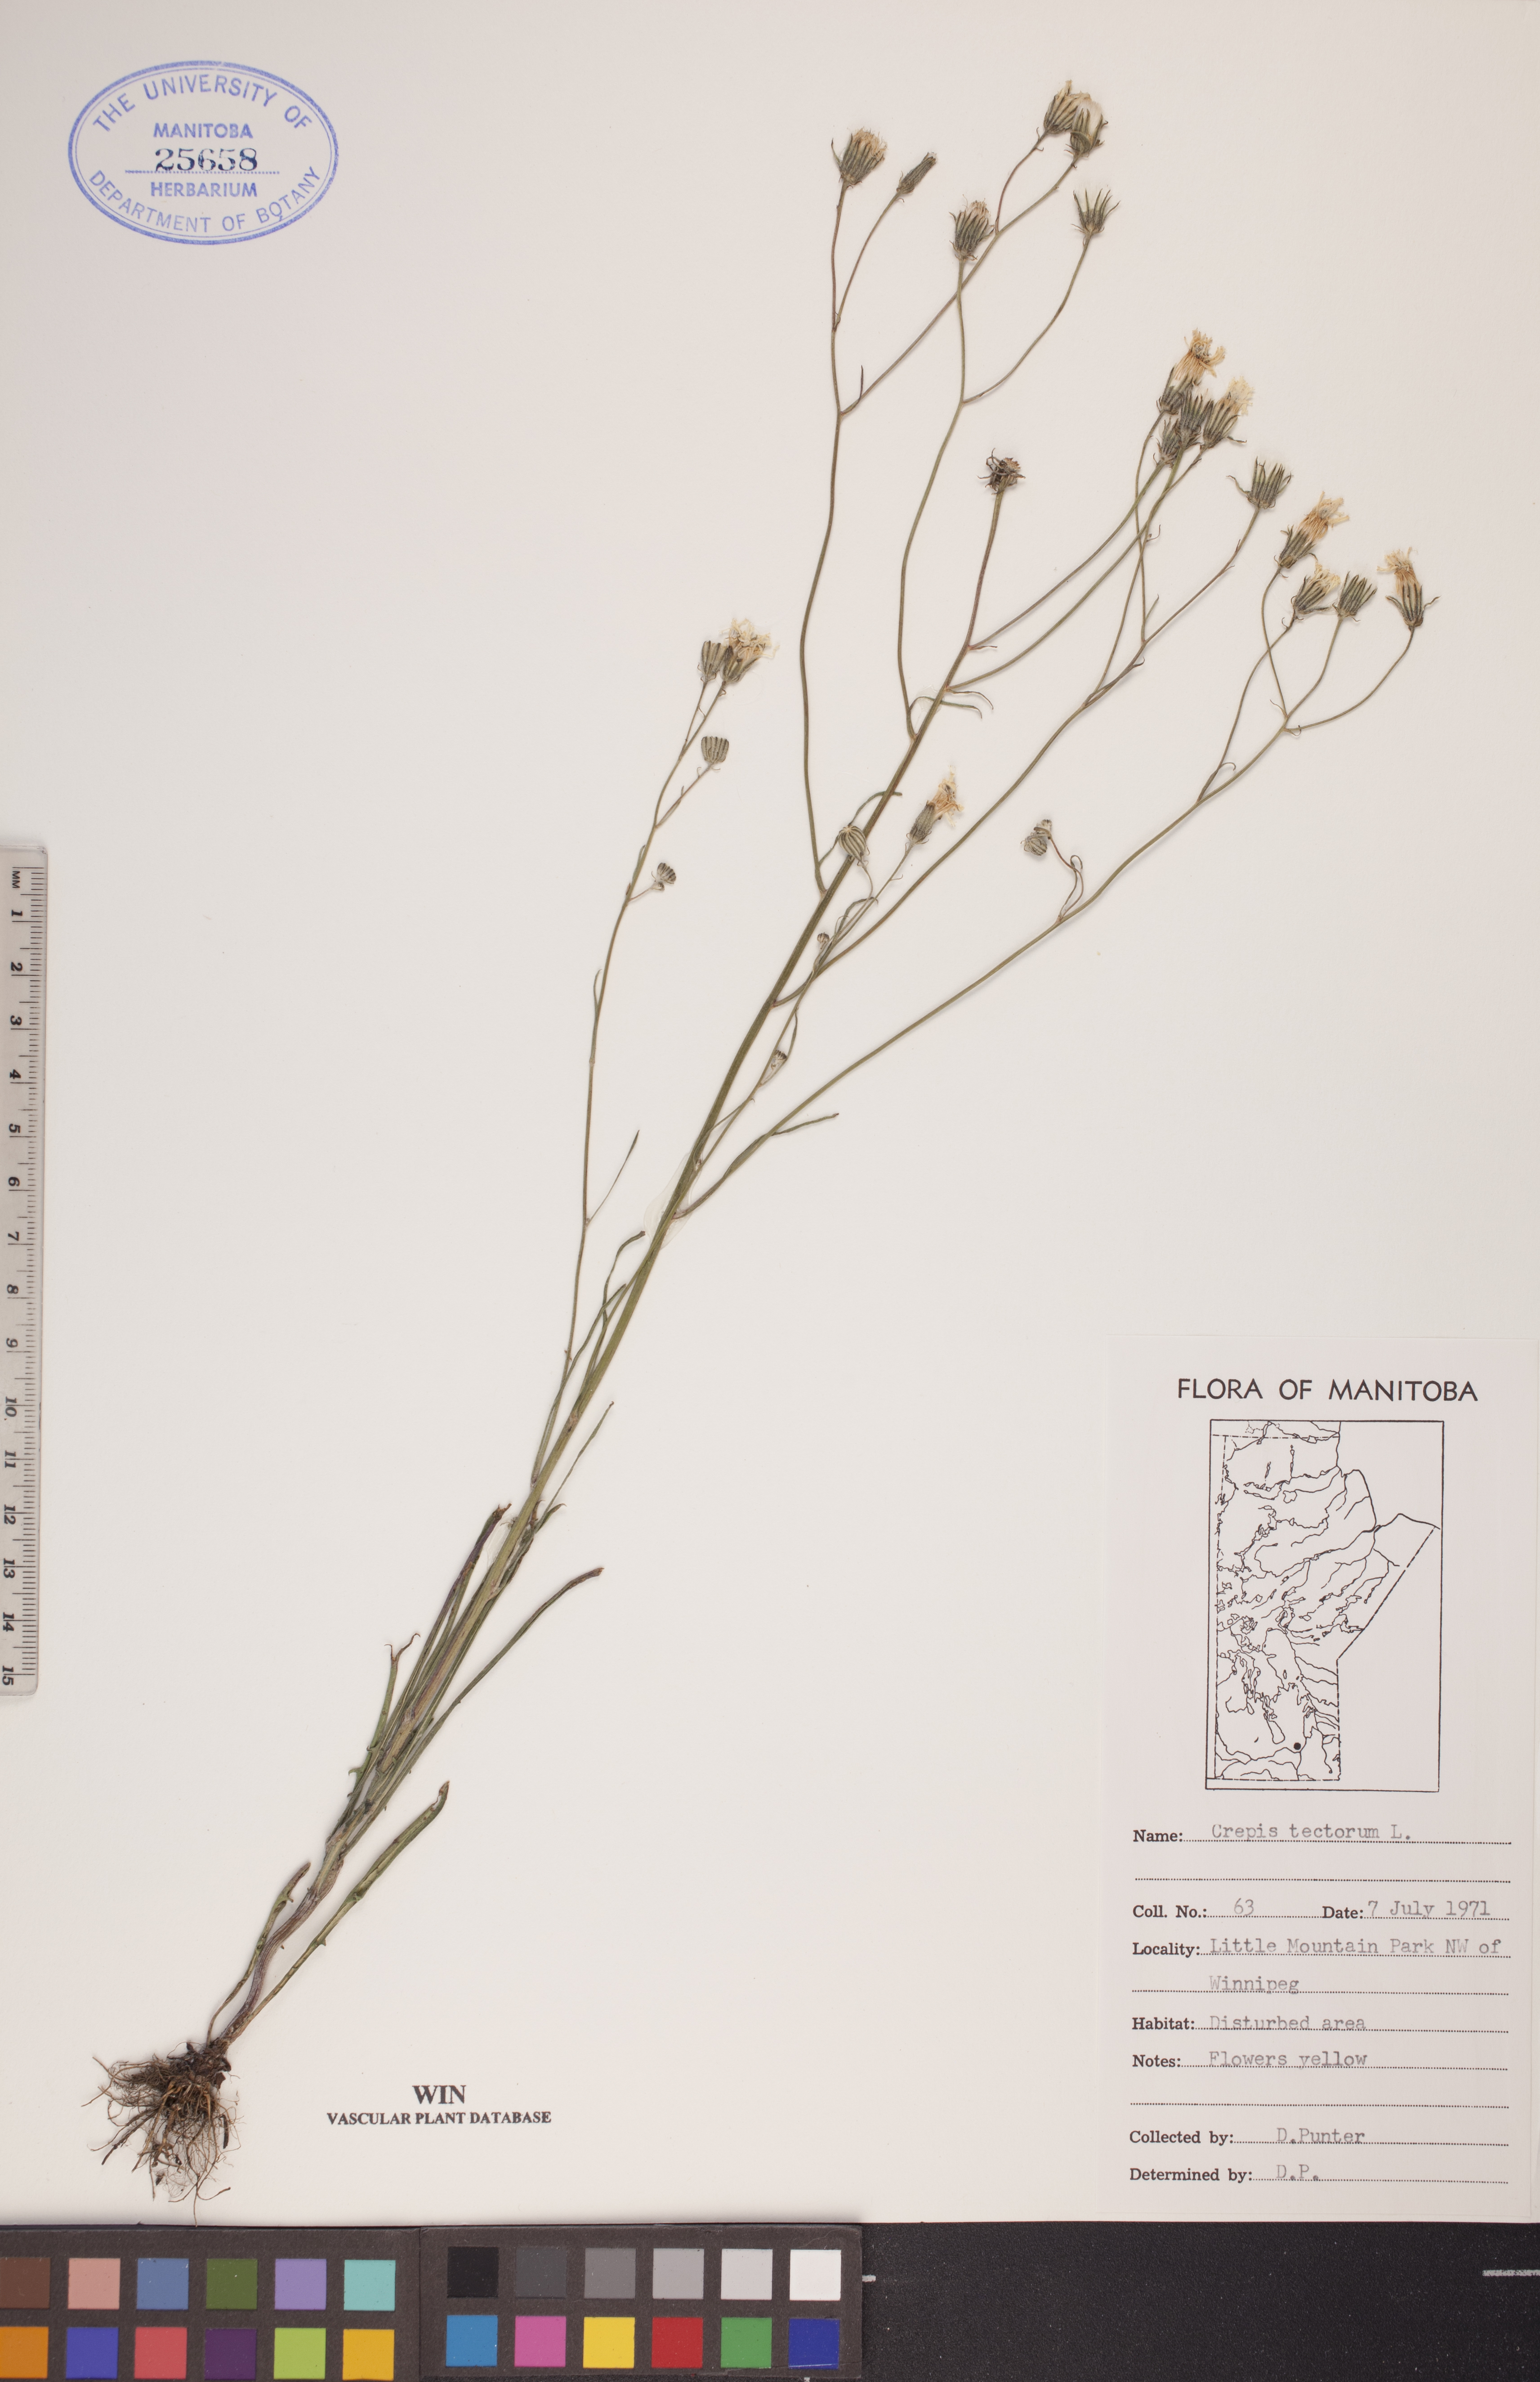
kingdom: Plantae
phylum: Tracheophyta
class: Magnoliopsida
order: Asterales
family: Asteraceae
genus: Crepis
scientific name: Crepis tectorum
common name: Narrow-leaved hawk's-beard
